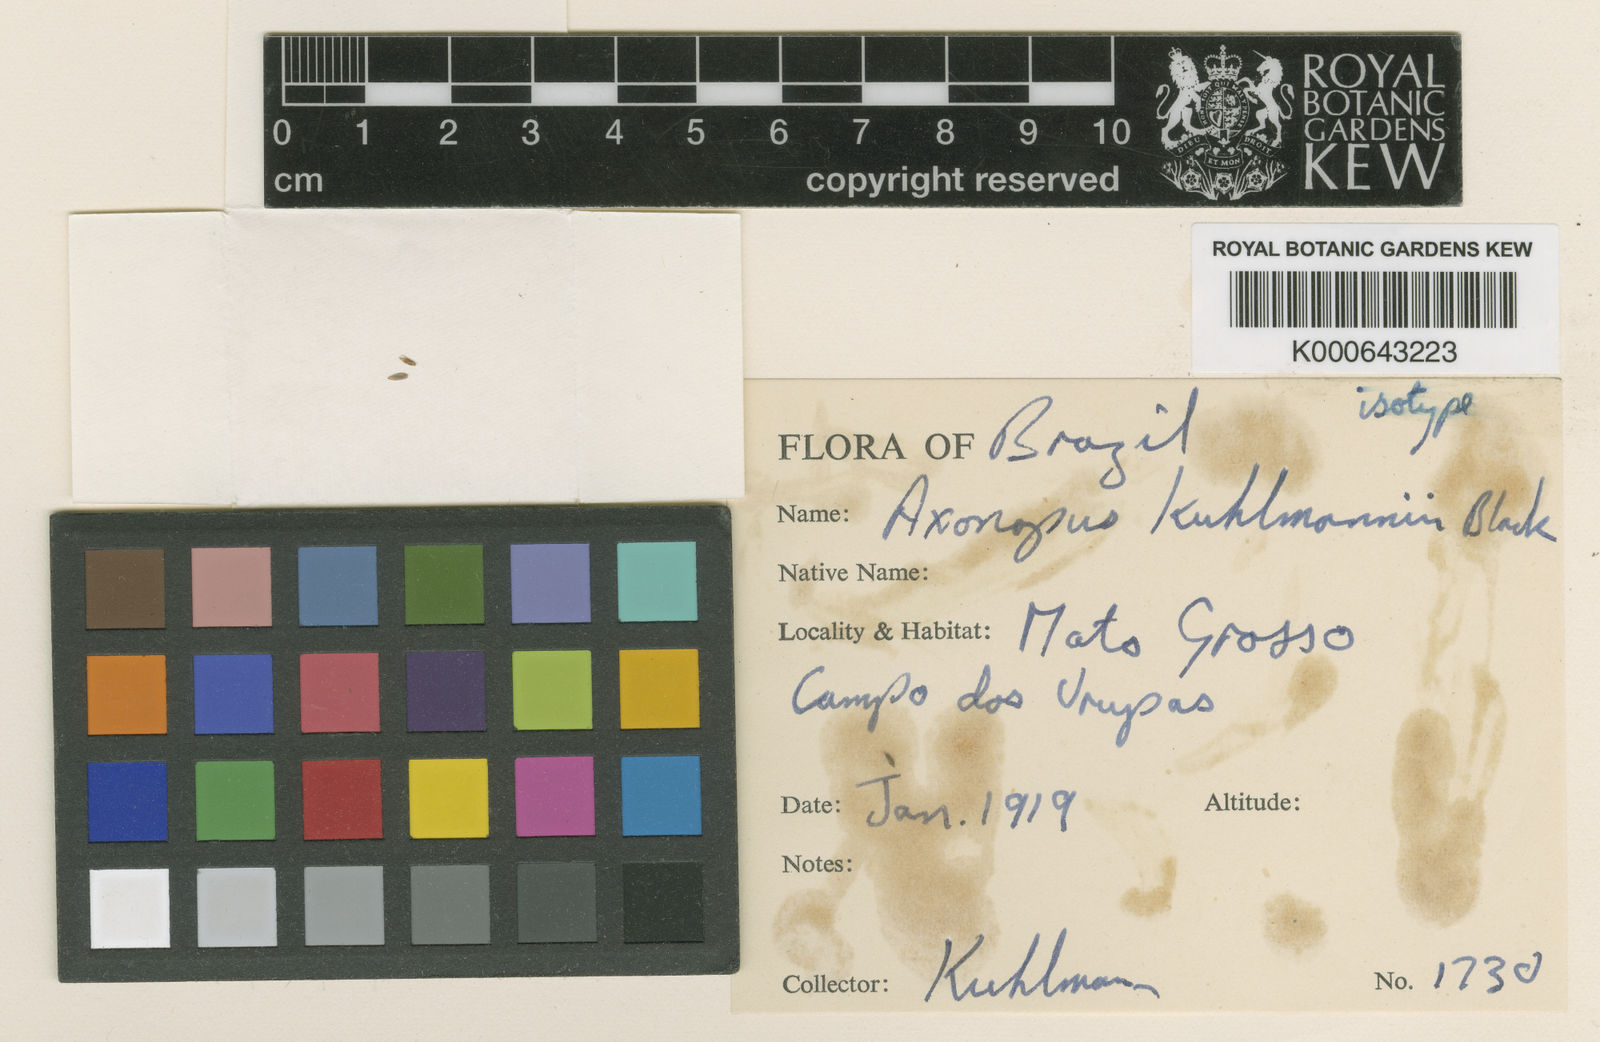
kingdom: Plantae
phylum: Tracheophyta
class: Liliopsida
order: Poales
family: Poaceae
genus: Axonopus
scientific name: Axonopus kuhlmannii
